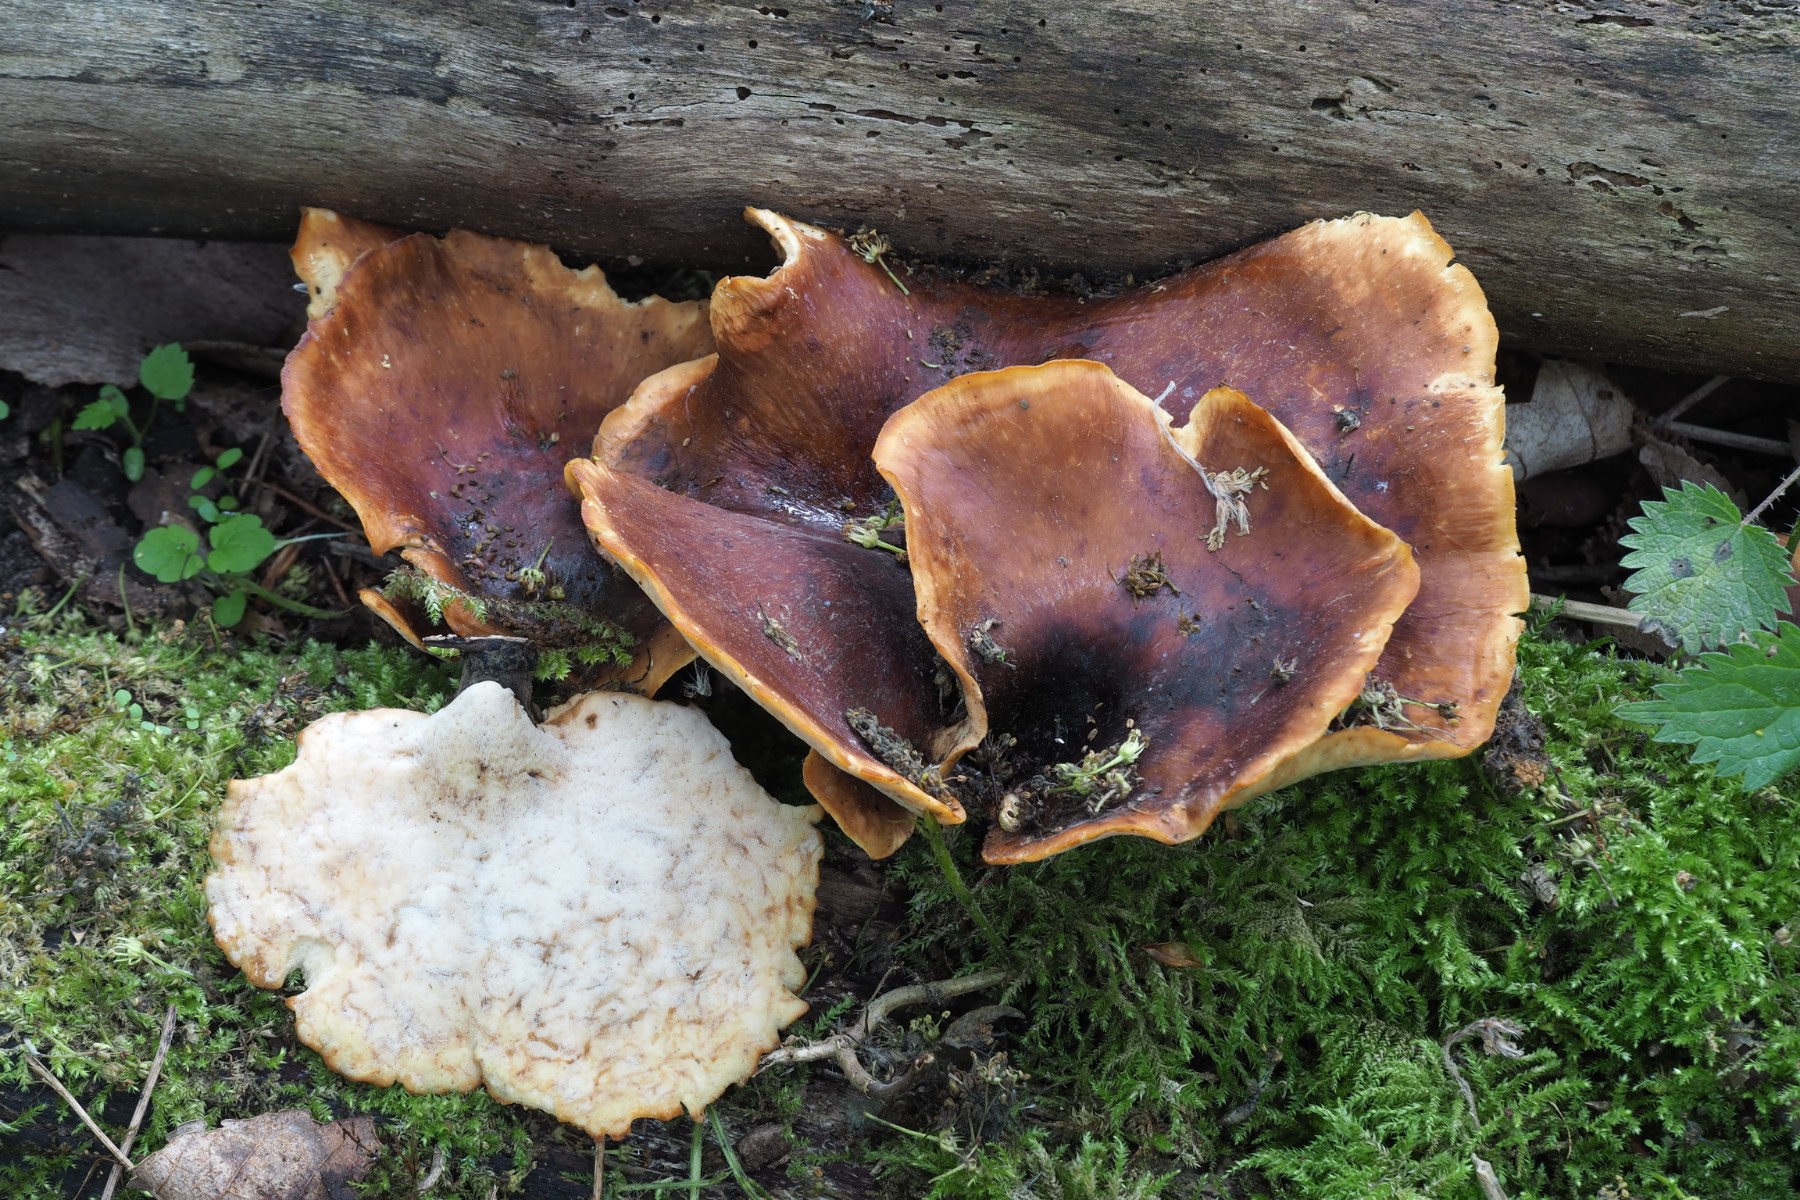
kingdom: Fungi
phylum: Basidiomycota
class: Agaricomycetes
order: Polyporales
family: Polyporaceae
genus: Picipes
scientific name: Picipes badius
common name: kastaniebrun stilkporesvamp
